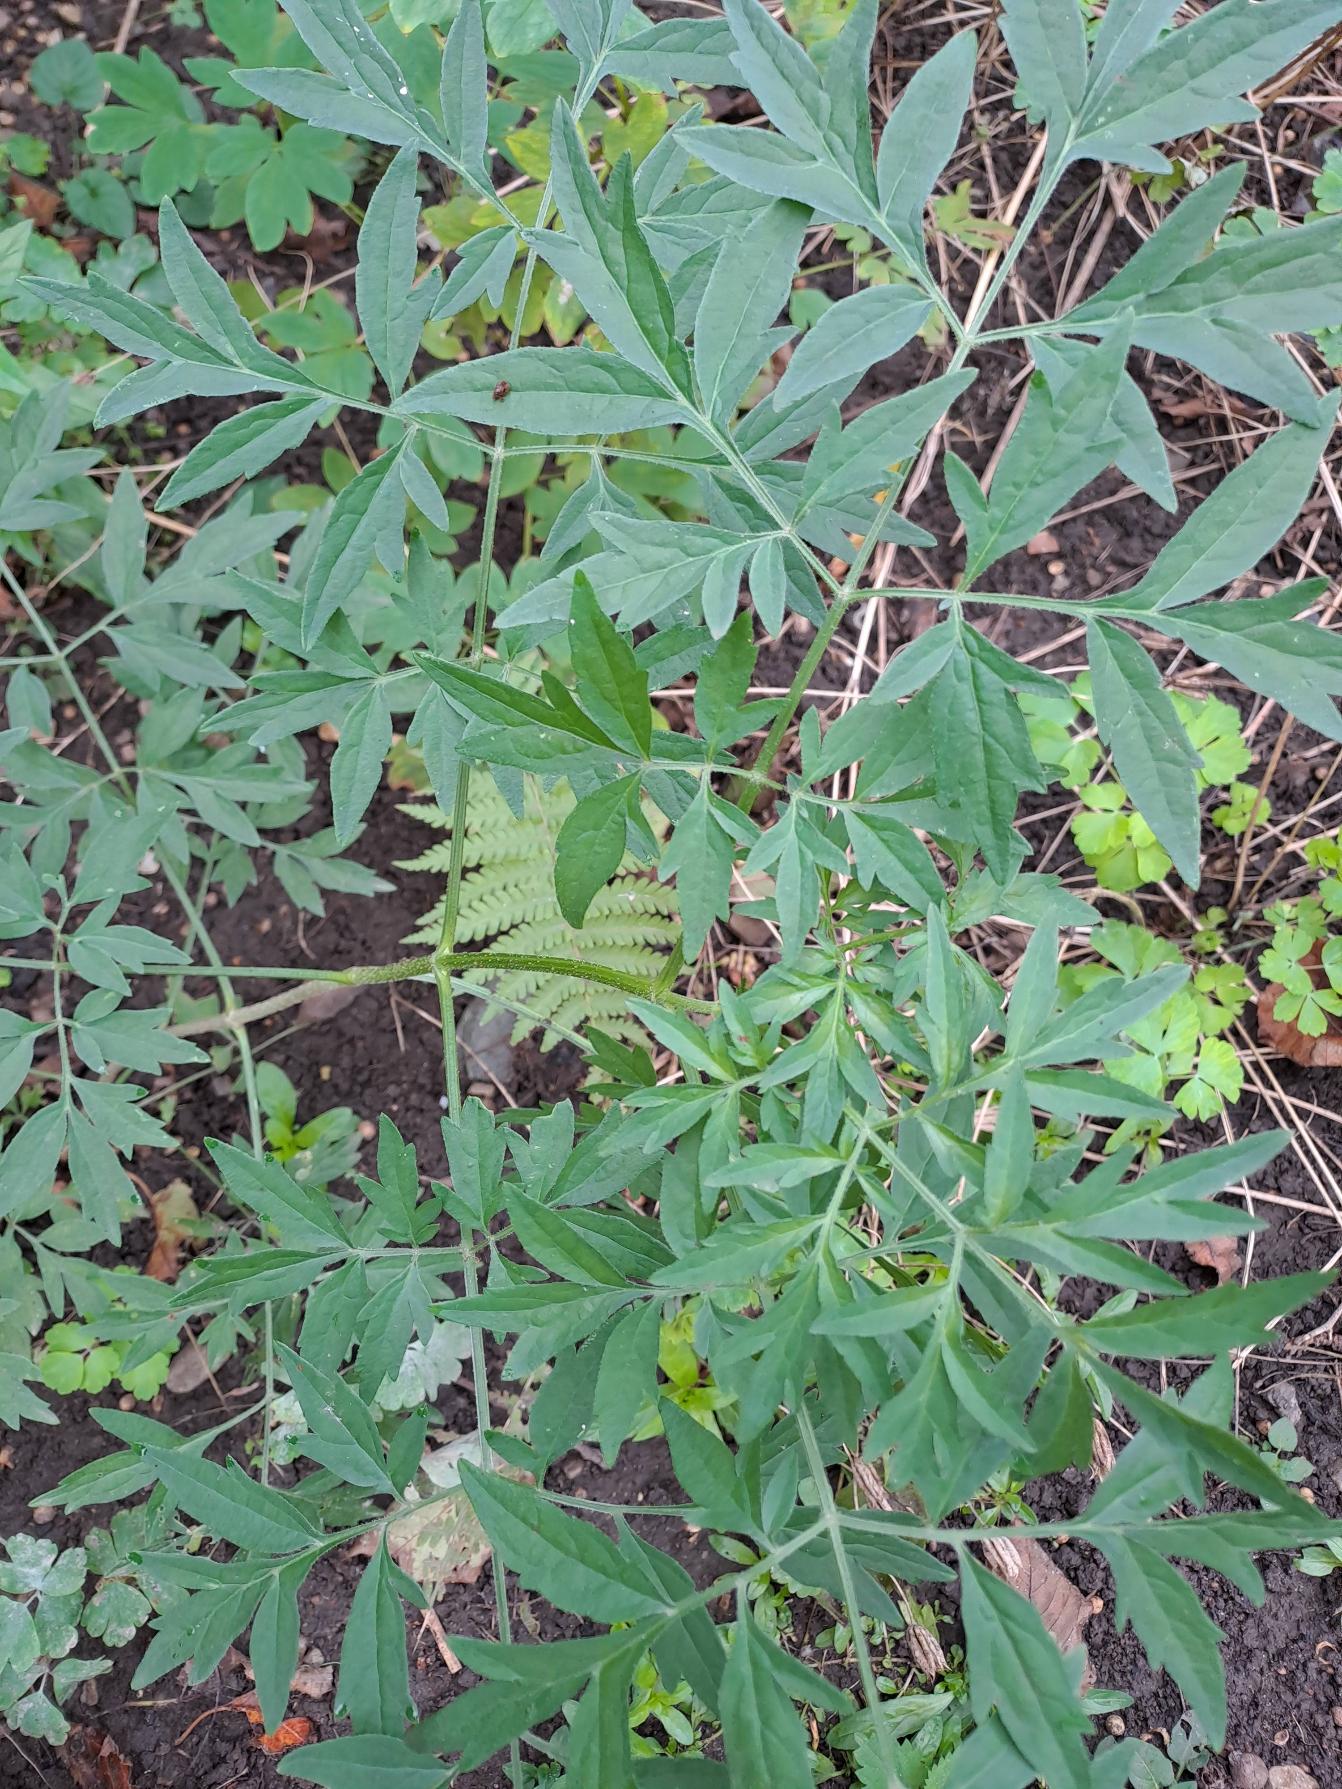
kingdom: Plantae
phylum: Tracheophyta
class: Magnoliopsida
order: Dipsacales
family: Viburnaceae
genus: Sambucus
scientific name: Sambucus nigra
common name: Almindelig hyld
